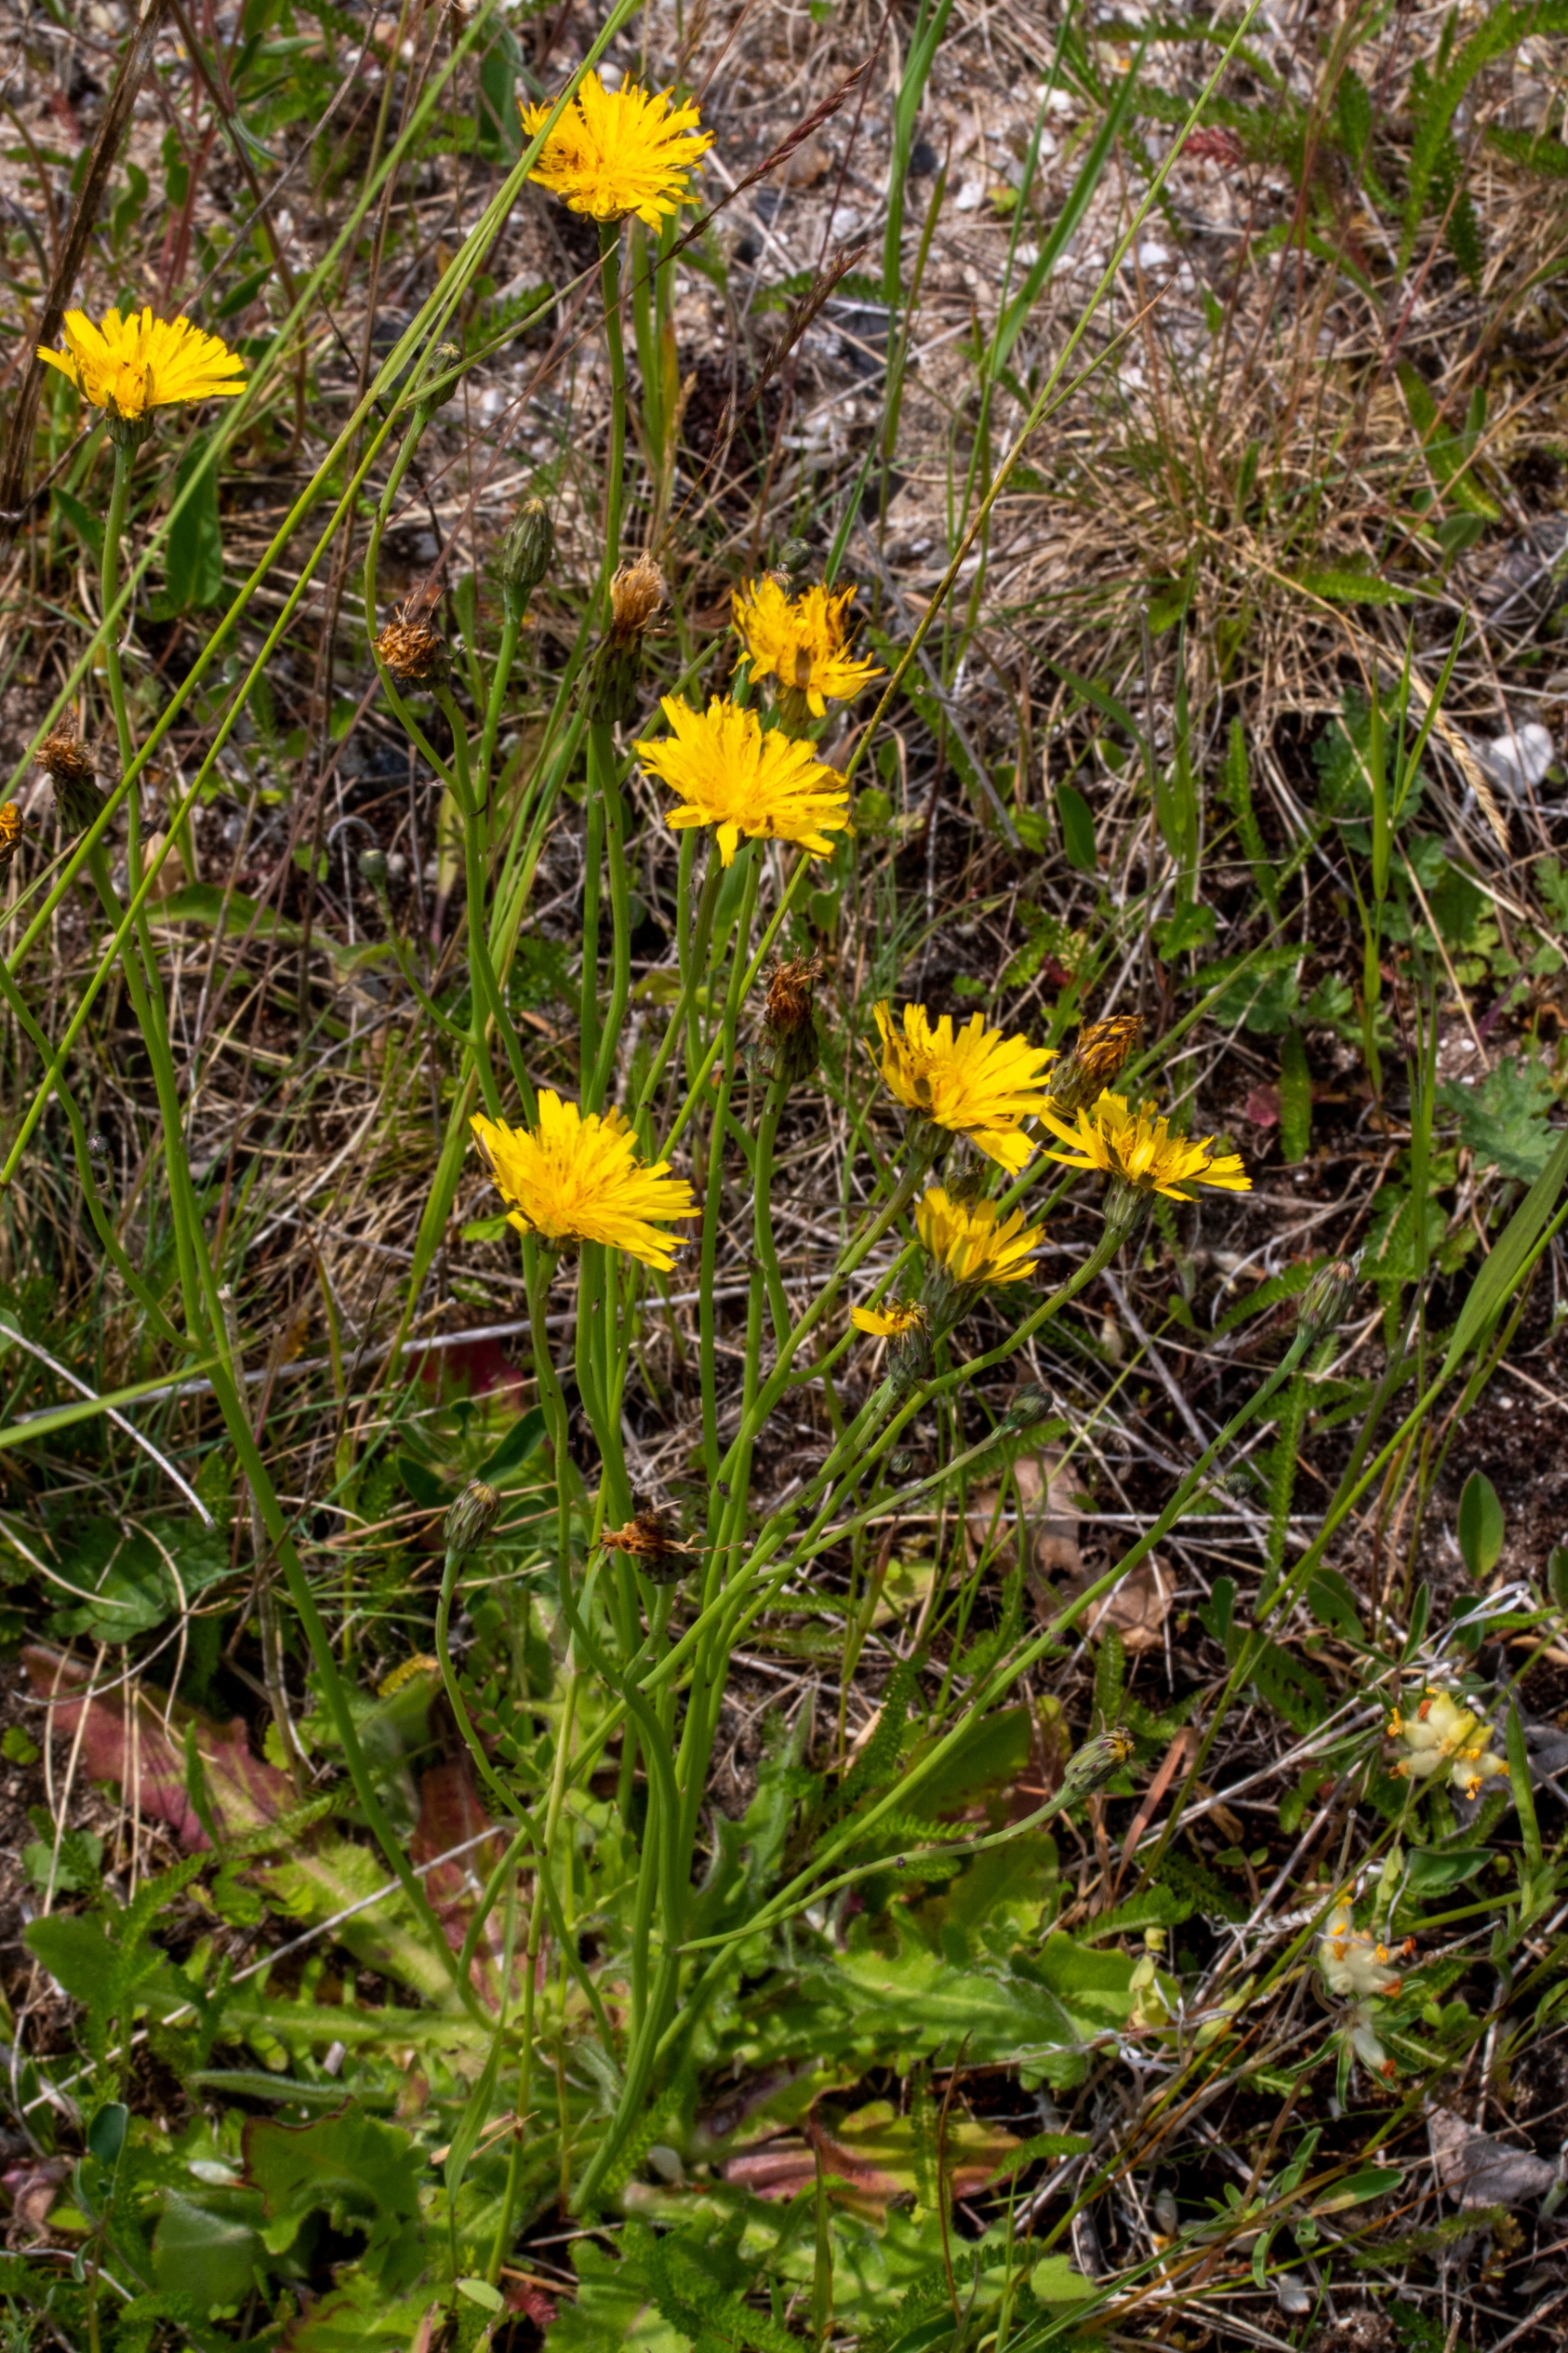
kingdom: Plantae
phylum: Tracheophyta
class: Magnoliopsida
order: Asterales
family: Asteraceae
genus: Hypochaeris
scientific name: Hypochaeris radicata
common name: Almindelig kongepen
